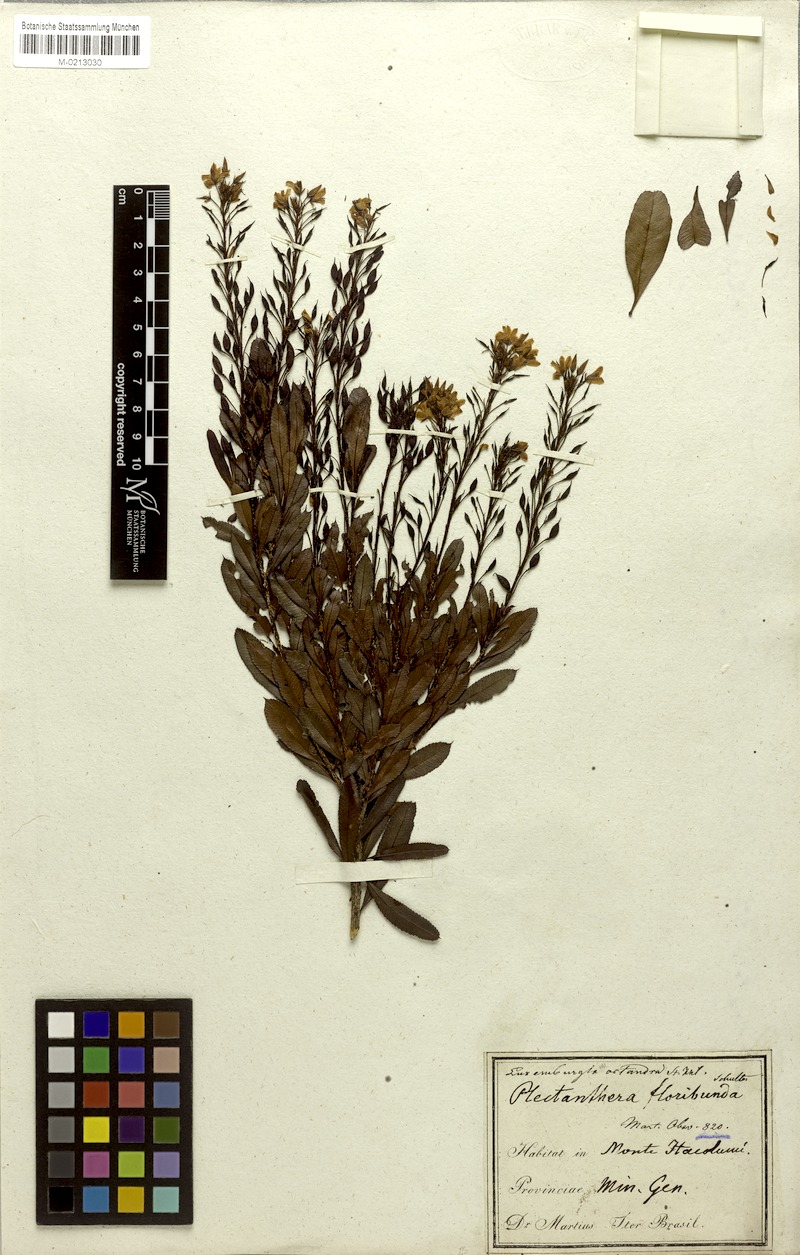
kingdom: Plantae
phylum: Tracheophyta
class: Magnoliopsida
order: Malpighiales
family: Ochnaceae
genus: Luxemburgia
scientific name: Luxemburgia octandra
